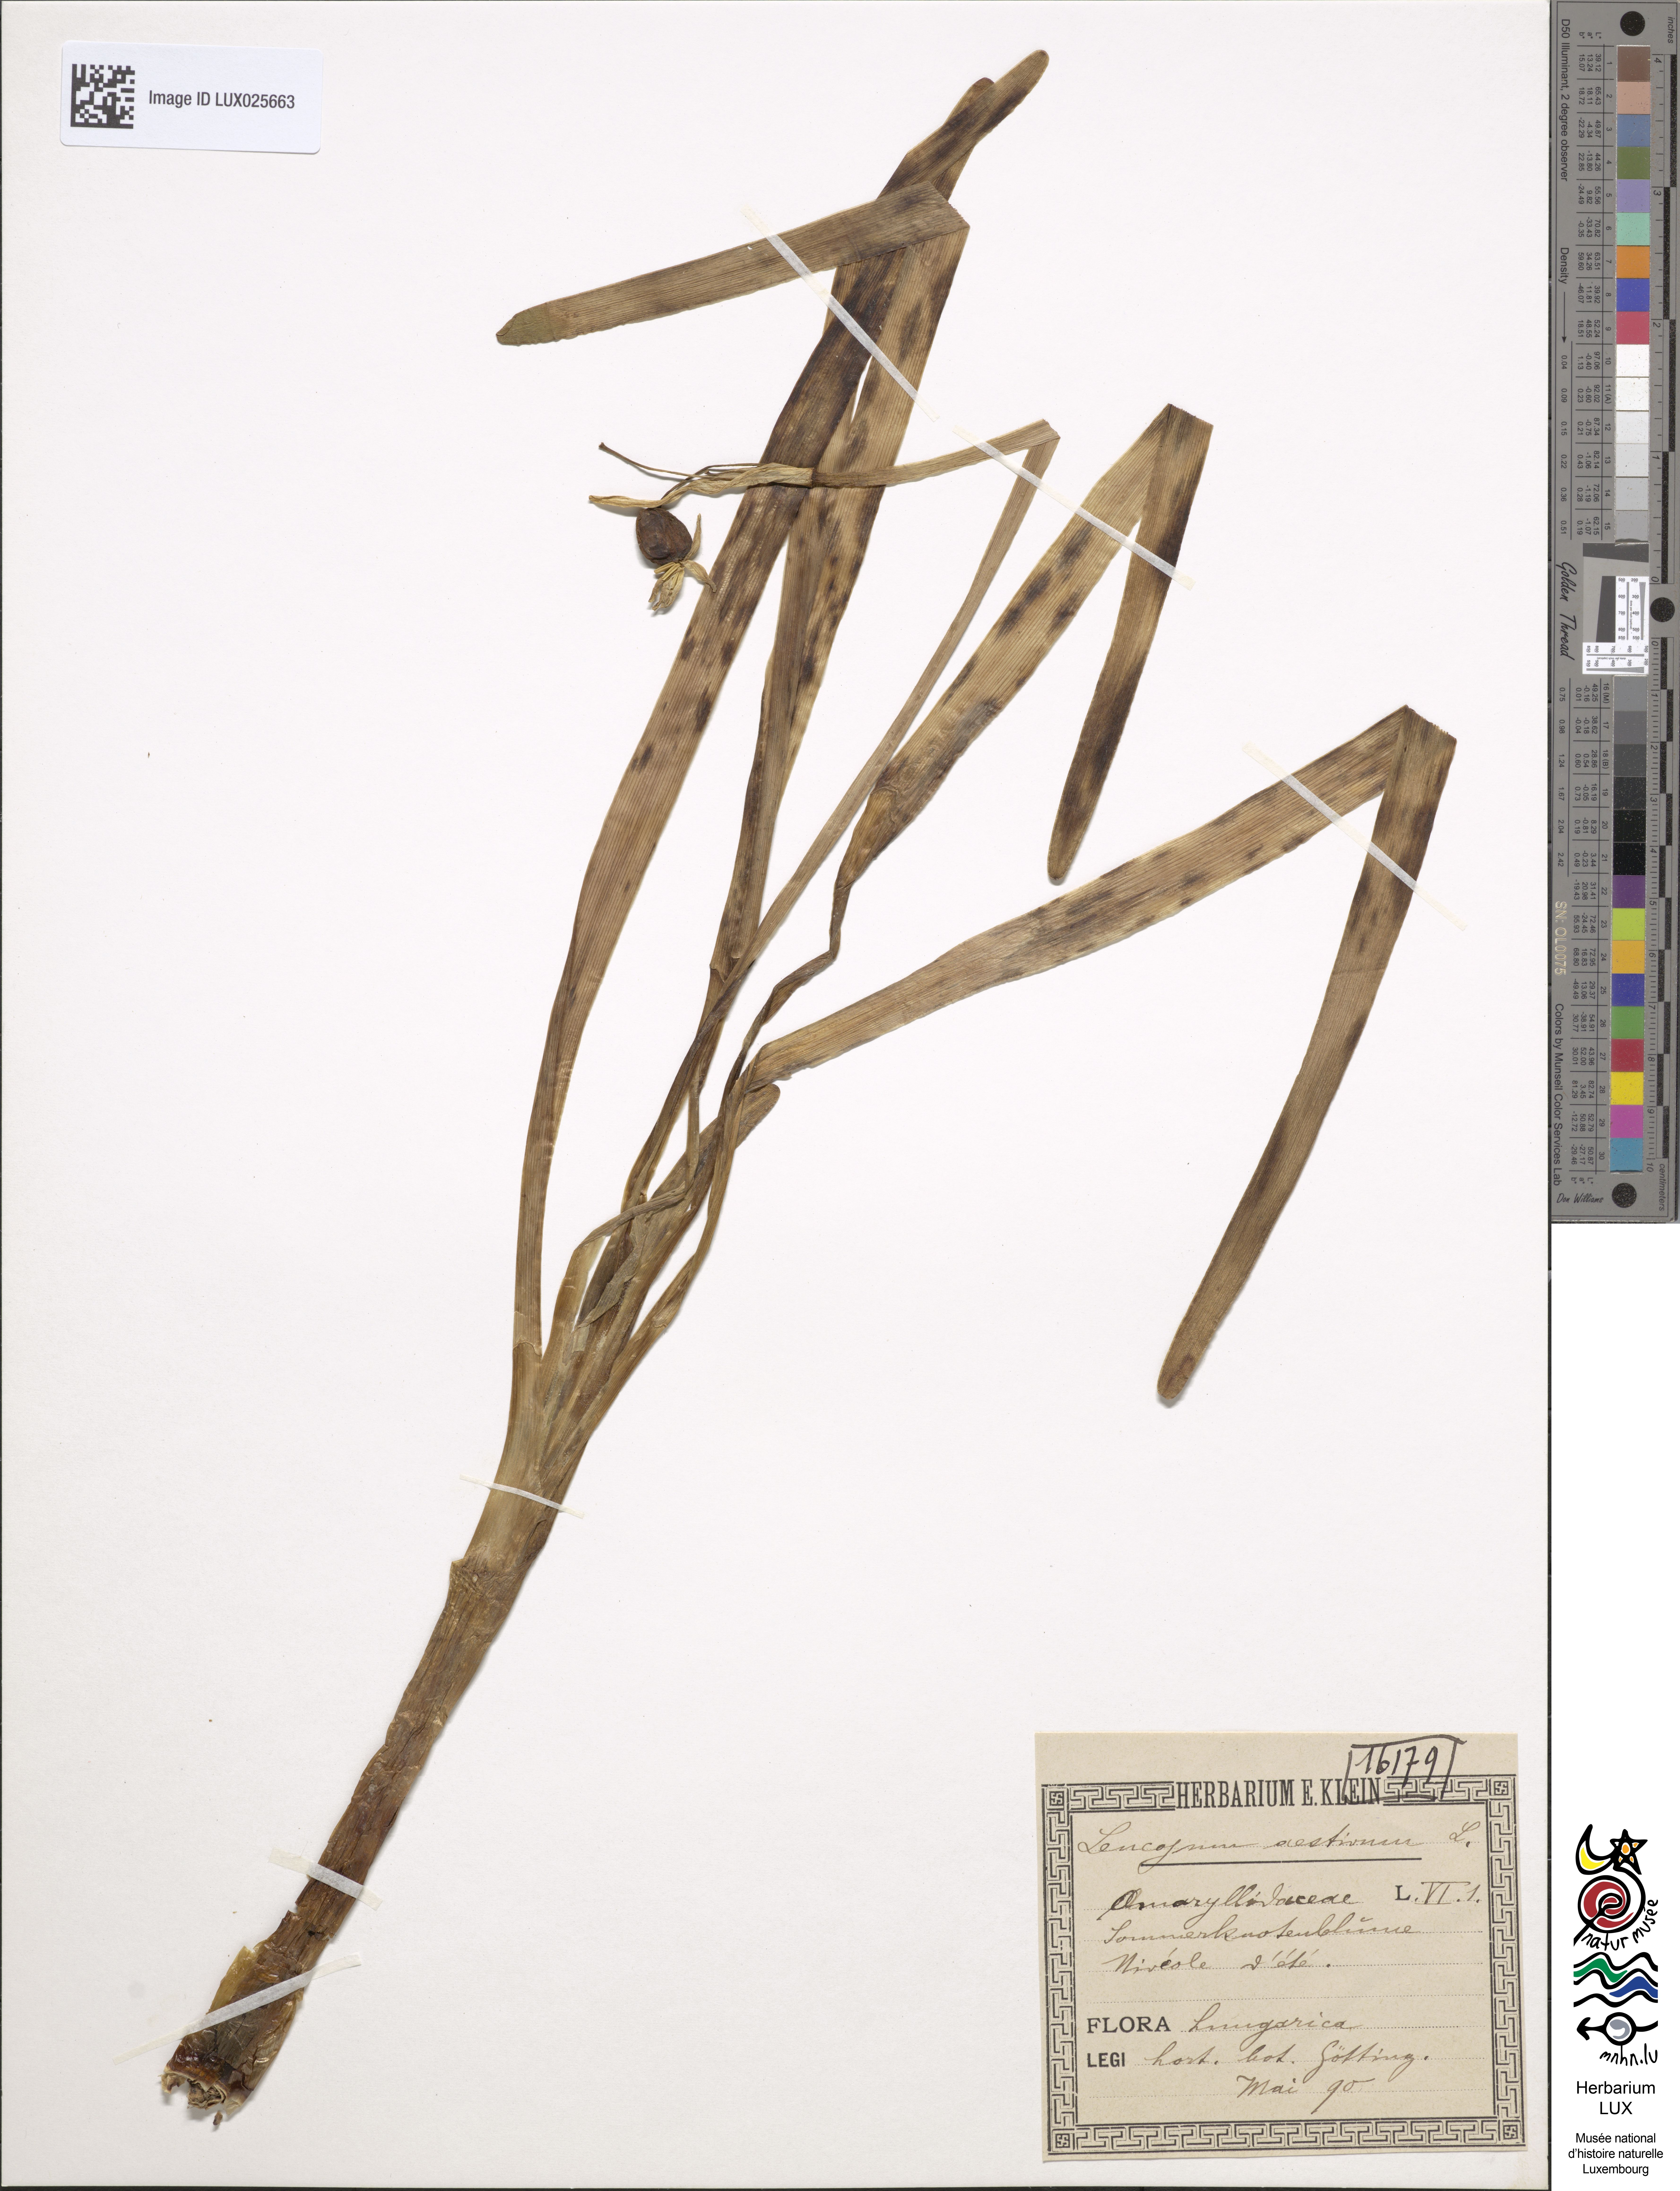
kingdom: Plantae
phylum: Tracheophyta
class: Liliopsida
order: Asparagales
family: Amaryllidaceae
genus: Leucojum
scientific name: Leucojum aestivum
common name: Summer snowflake
